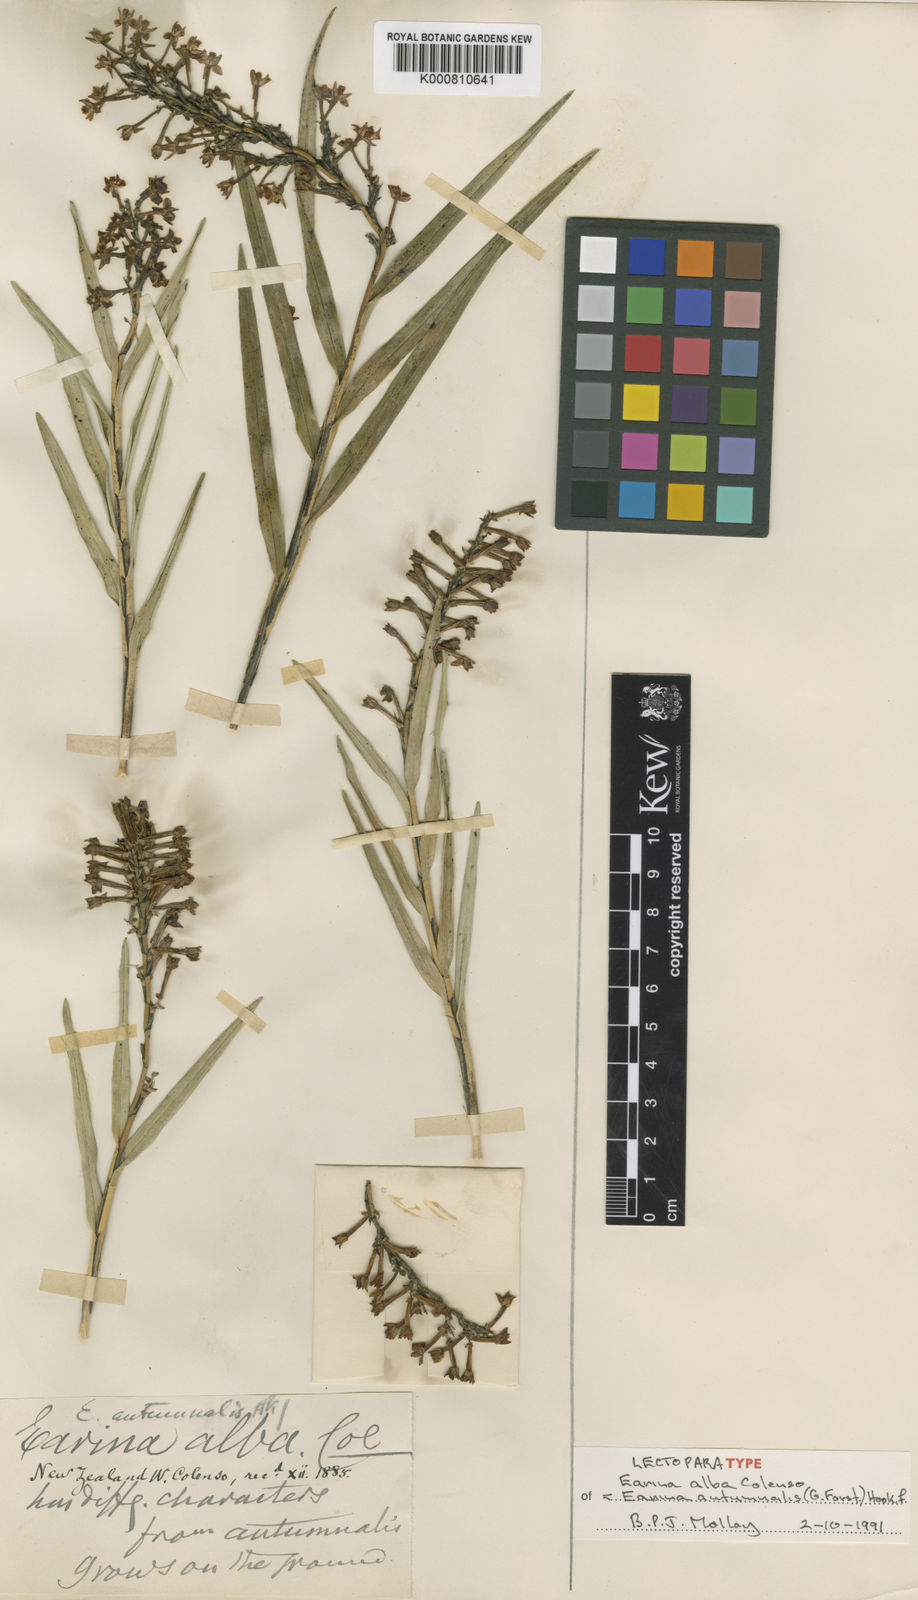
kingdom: Plantae
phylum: Tracheophyta
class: Liliopsida
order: Asparagales
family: Orchidaceae
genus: Earina
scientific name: Earina autumnalis
